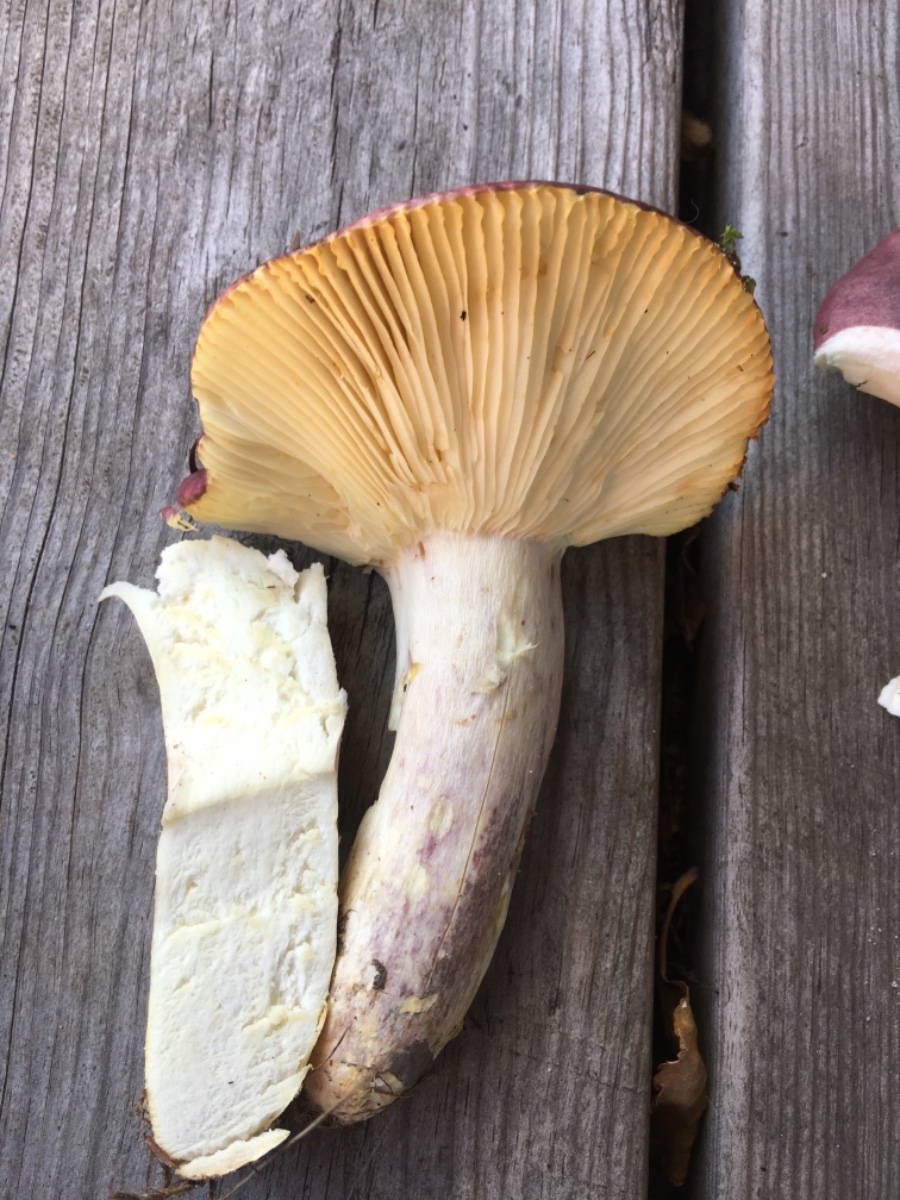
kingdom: Fungi
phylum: Basidiomycota
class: Agaricomycetes
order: Russulales
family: Russulaceae
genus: Russula
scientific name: Russula sardonia
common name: citronbladet skørhat
